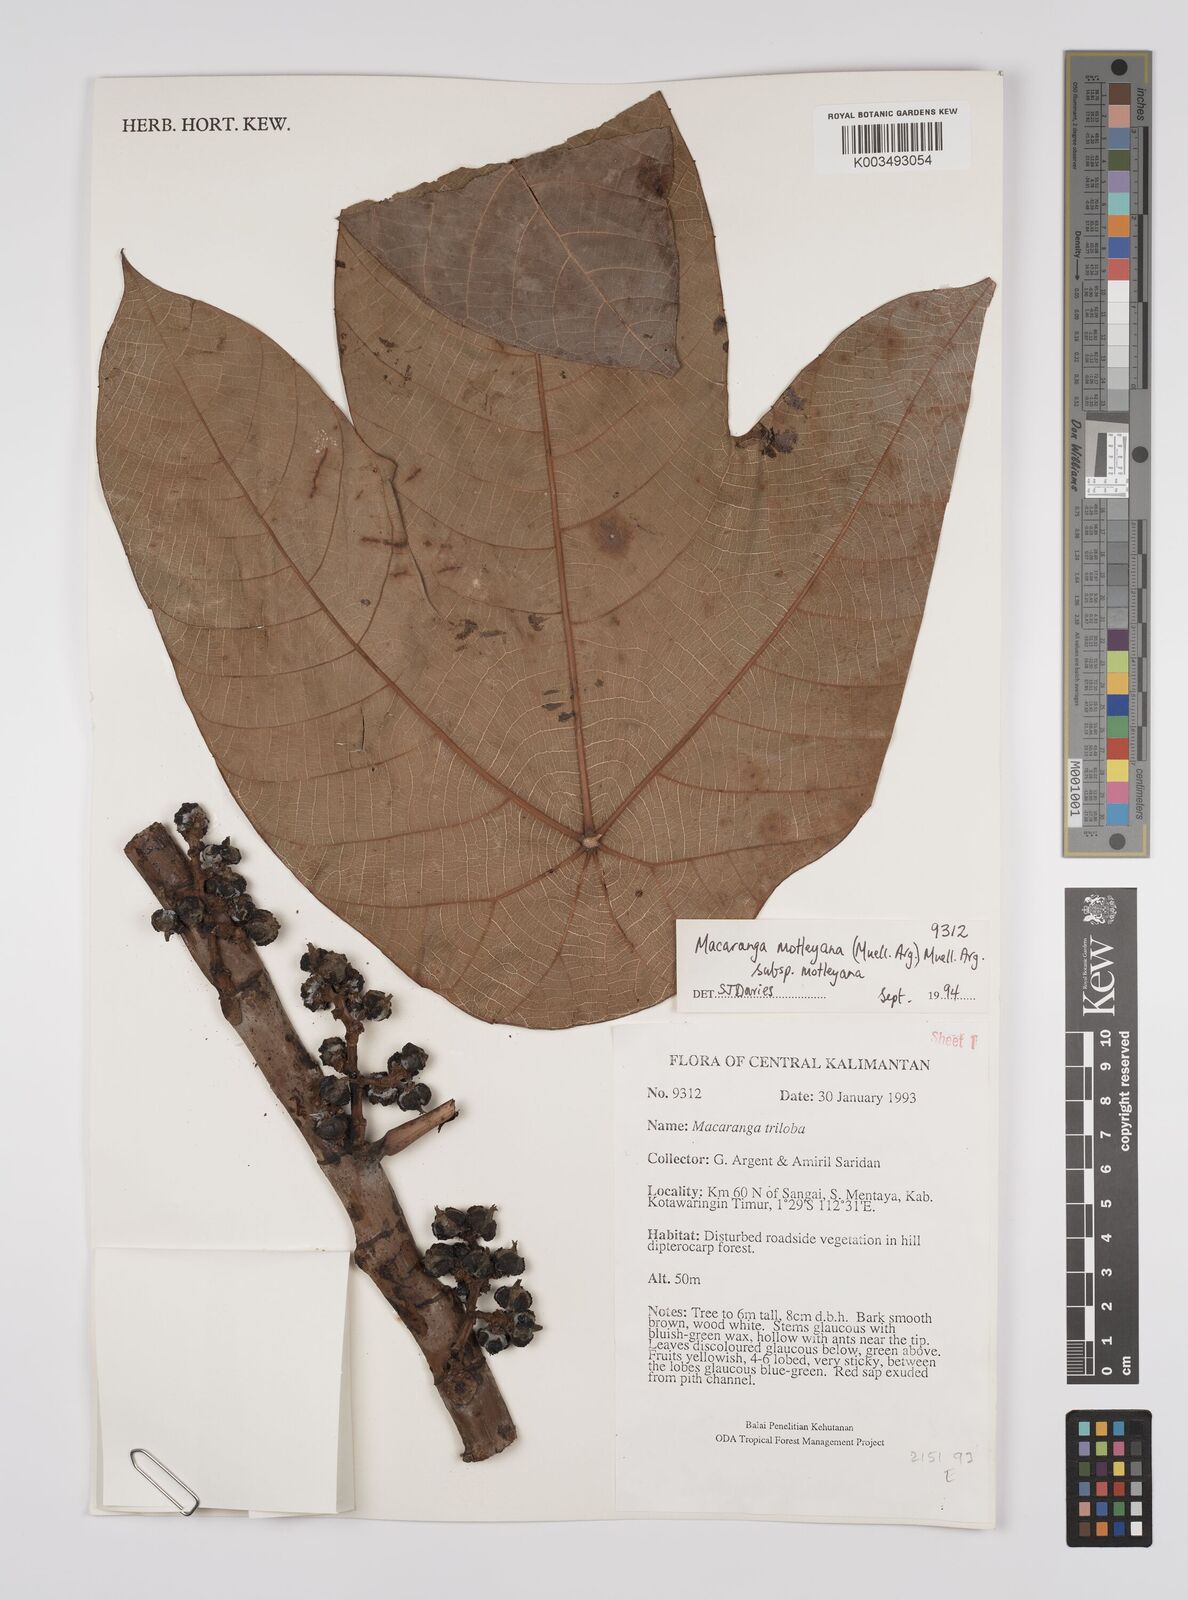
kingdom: Plantae
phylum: Tracheophyta
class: Magnoliopsida
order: Malpighiales
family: Euphorbiaceae
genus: Macaranga
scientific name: Macaranga motleyana
